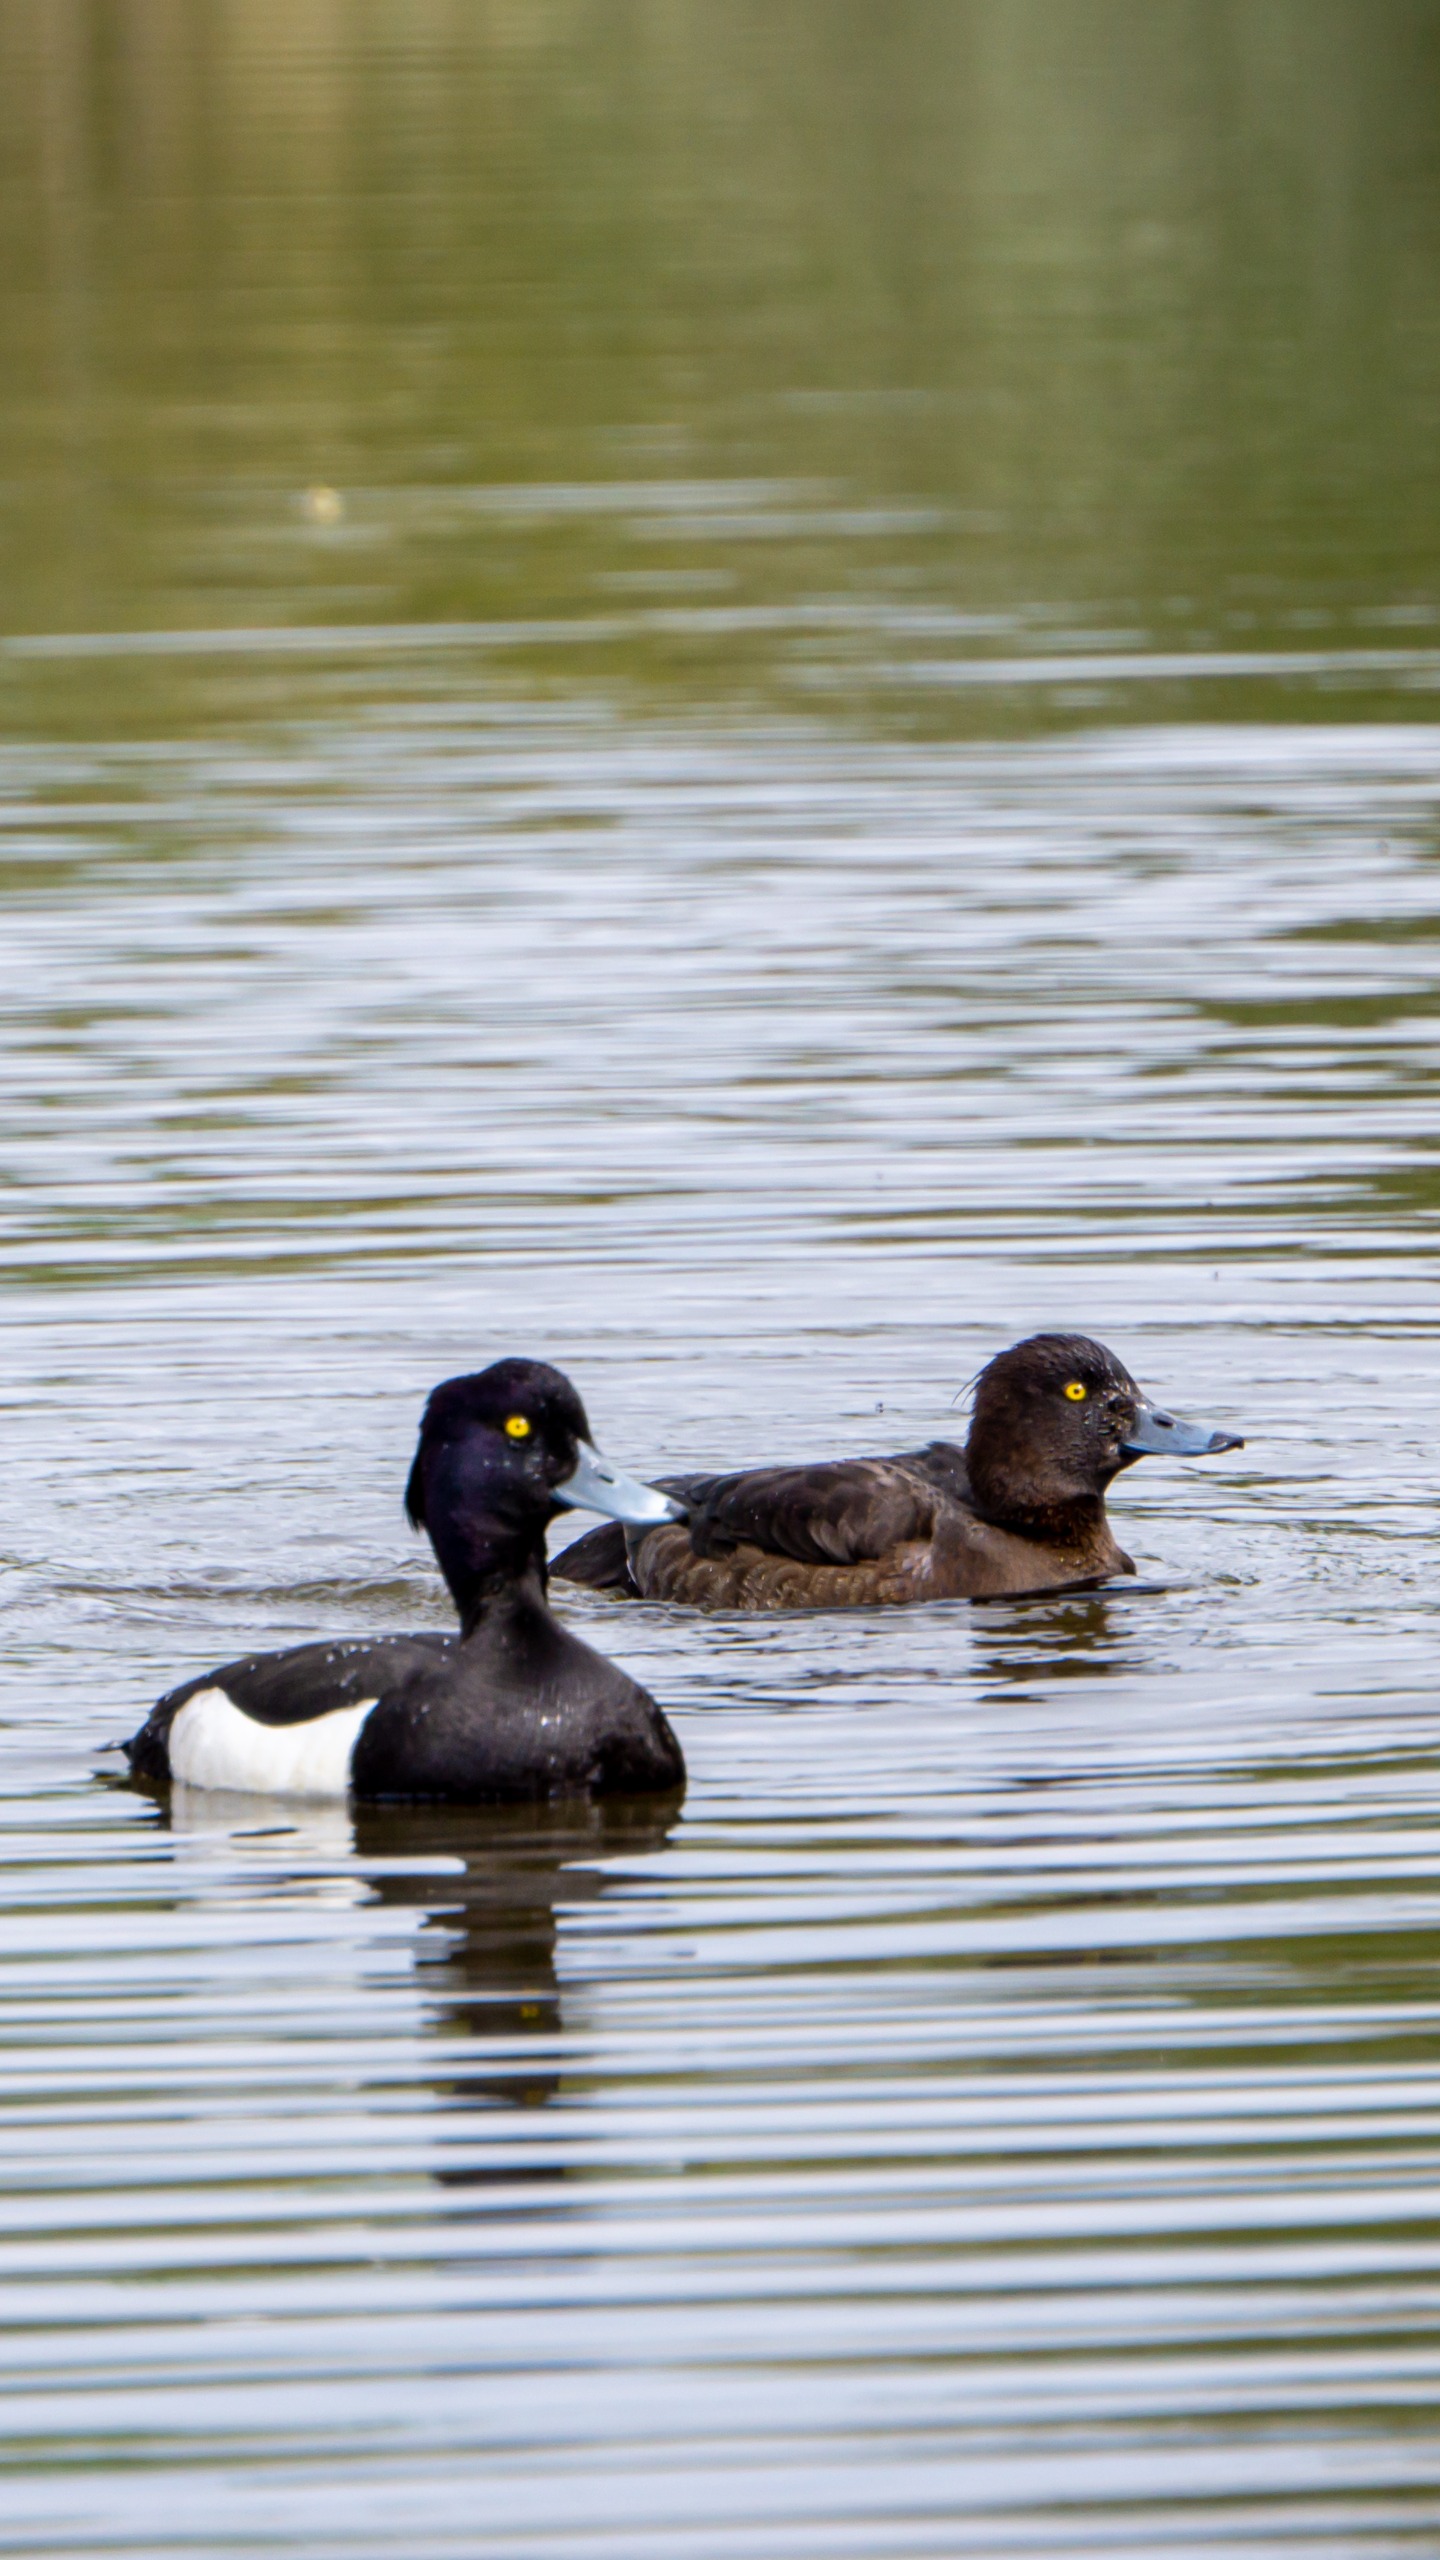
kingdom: Animalia
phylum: Chordata
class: Aves
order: Anseriformes
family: Anatidae
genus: Aythya
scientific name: Aythya fuligula
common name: Troldand
